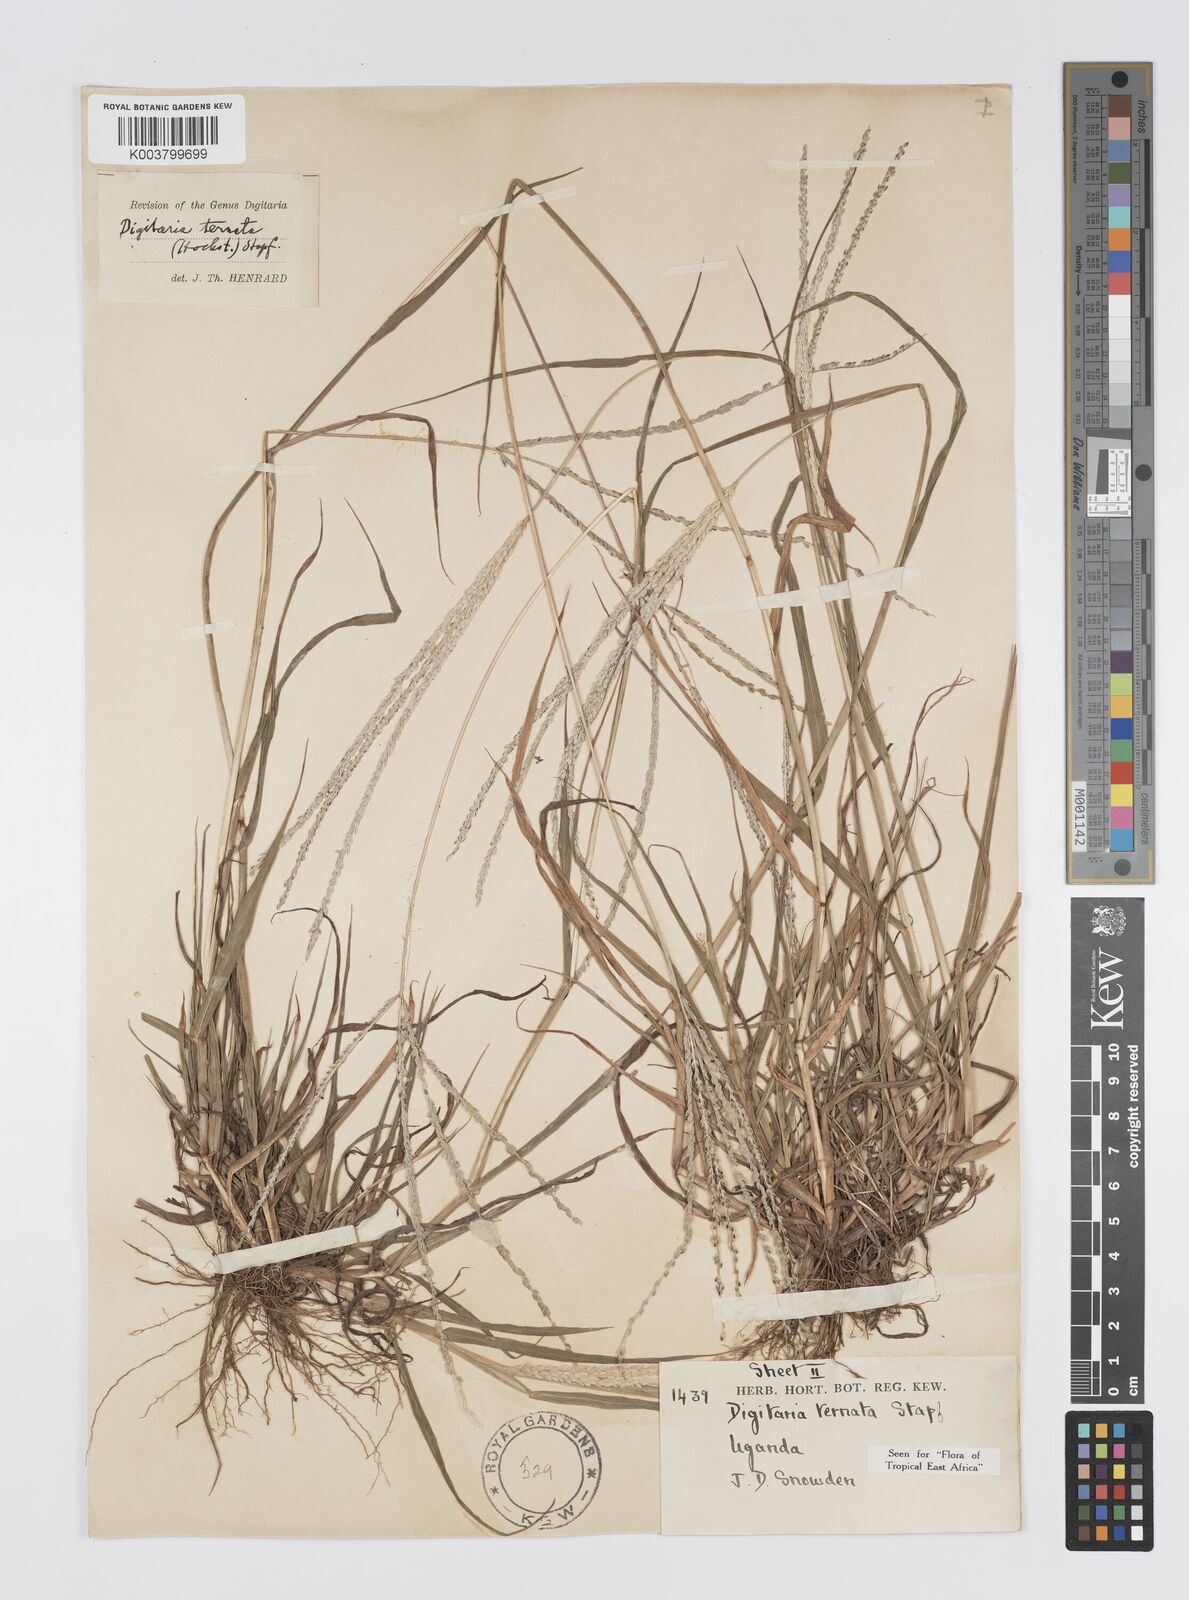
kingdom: Plantae
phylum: Tracheophyta
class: Liliopsida
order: Poales
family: Poaceae
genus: Digitaria
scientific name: Digitaria ternata
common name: Blackseed crabgrass
